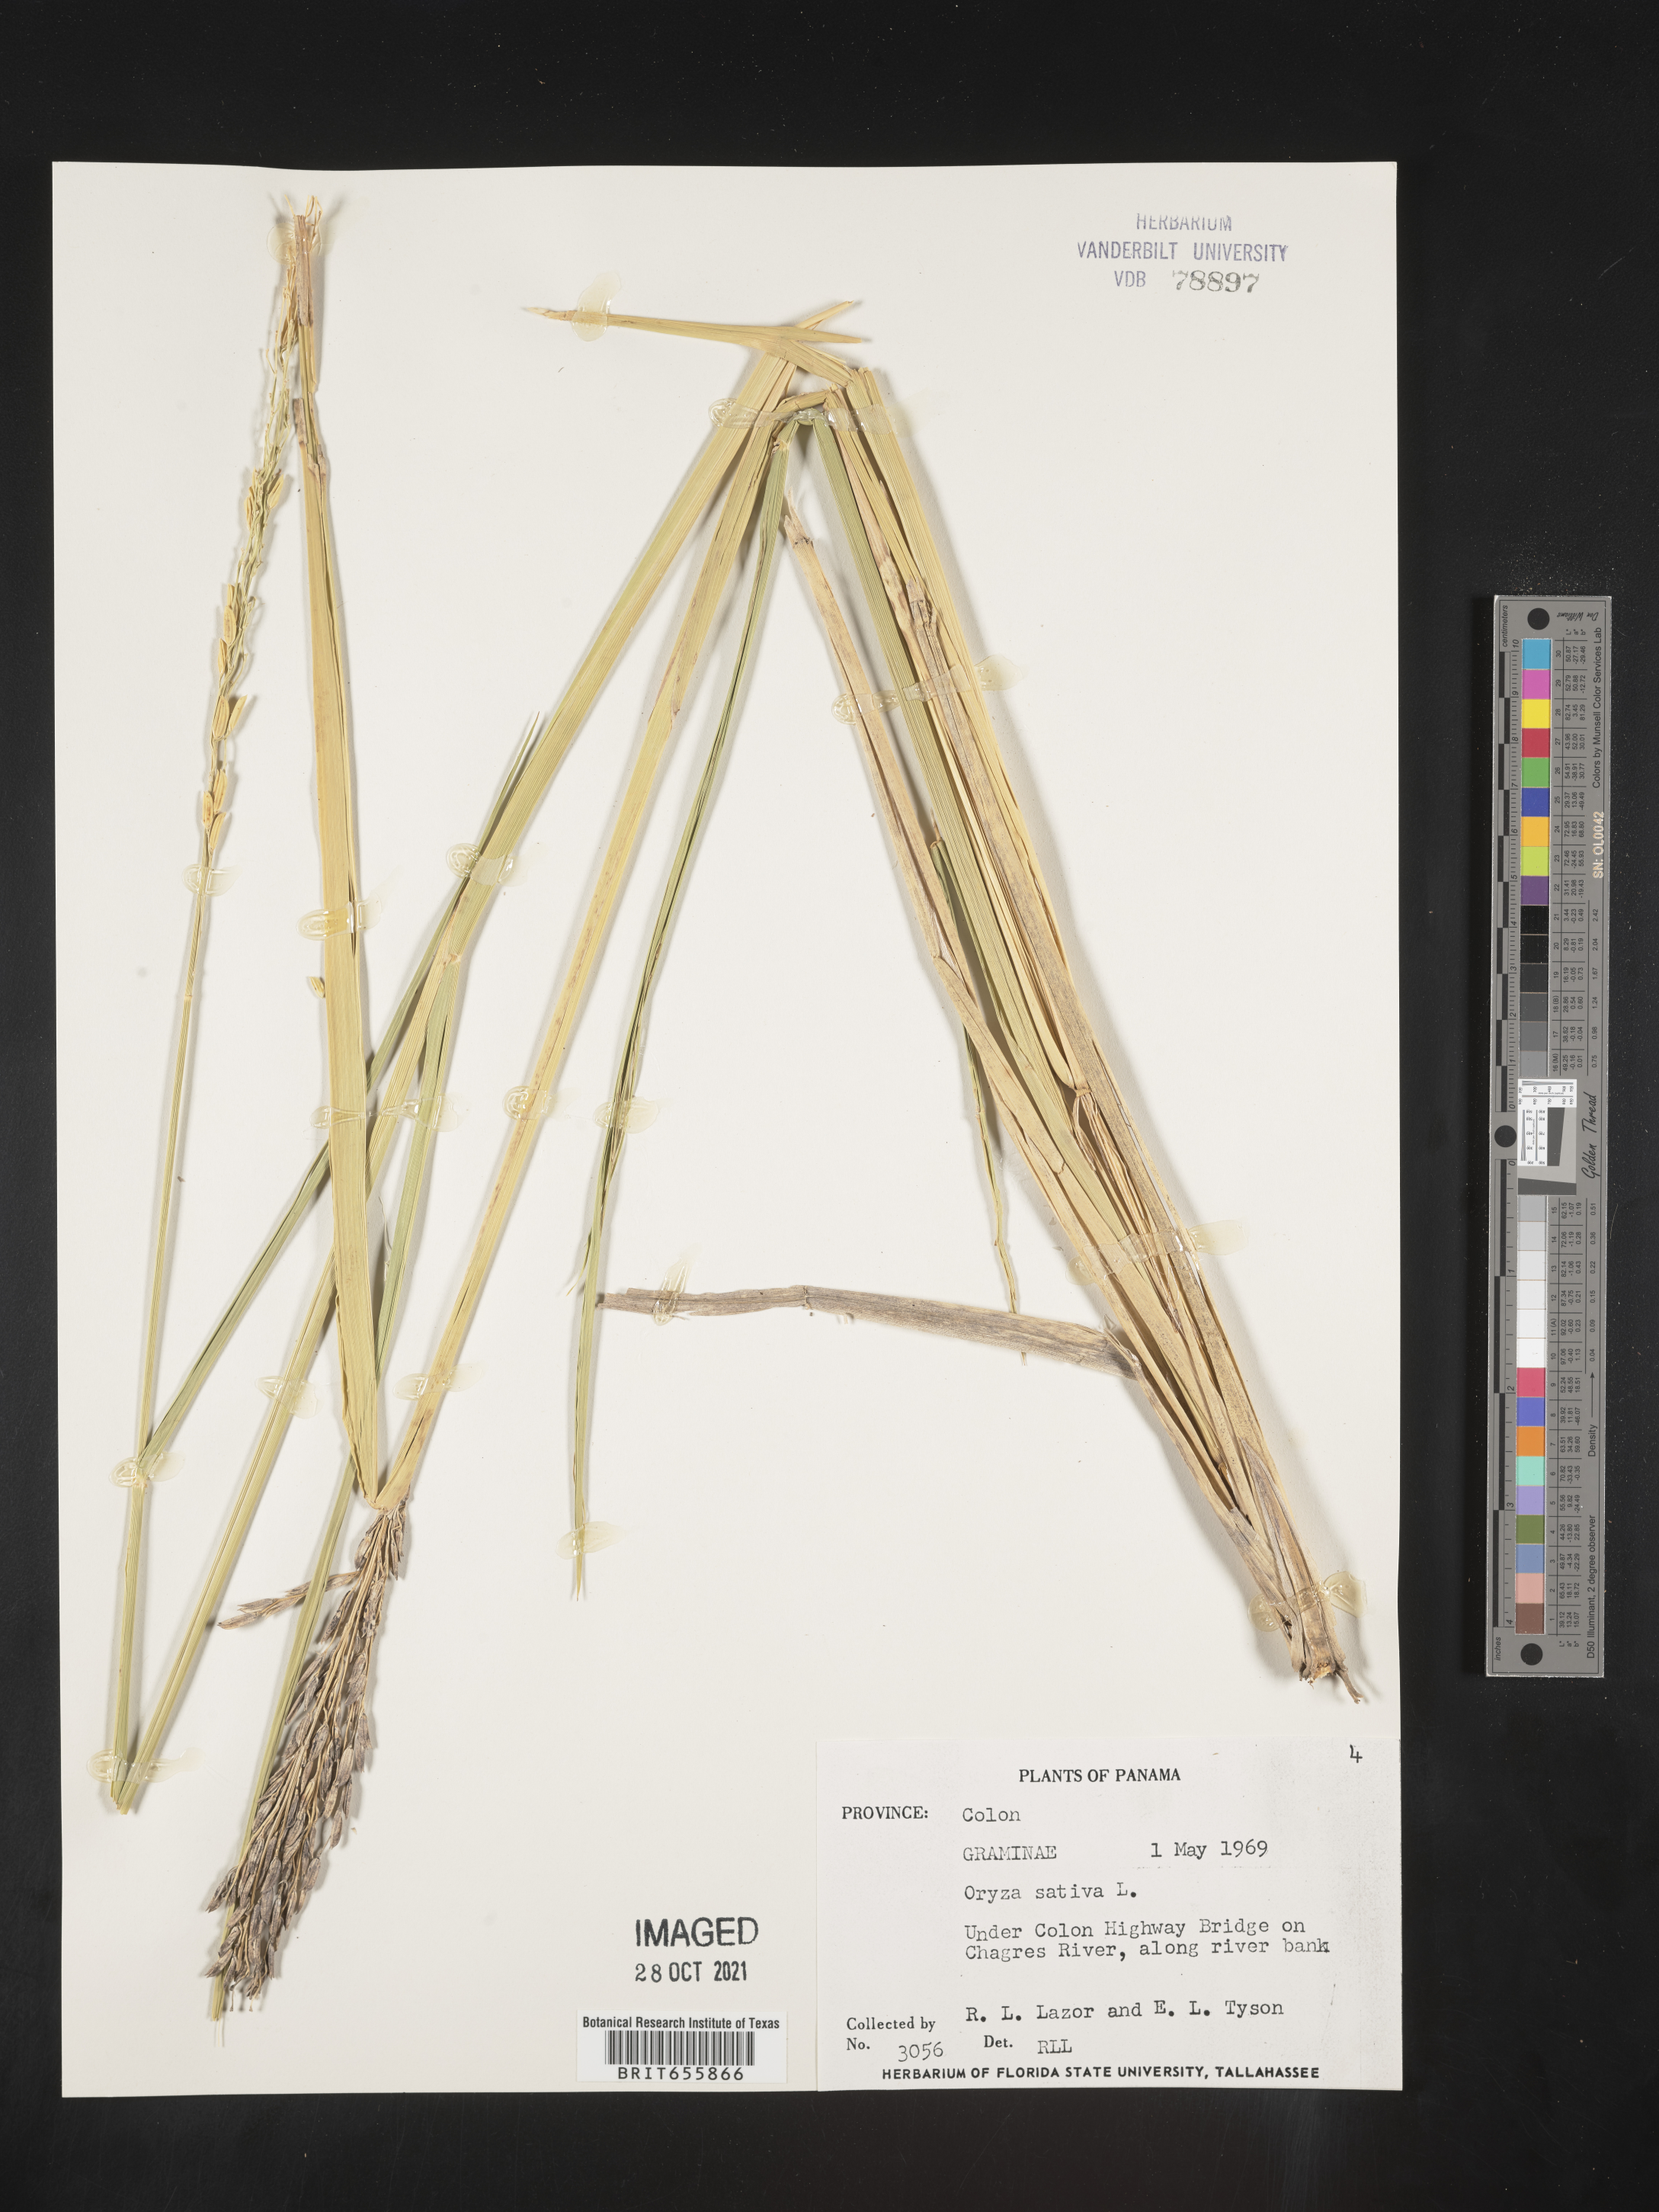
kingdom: Plantae
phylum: Tracheophyta
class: Liliopsida
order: Poales
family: Poaceae
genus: Oryza
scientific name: Oryza
